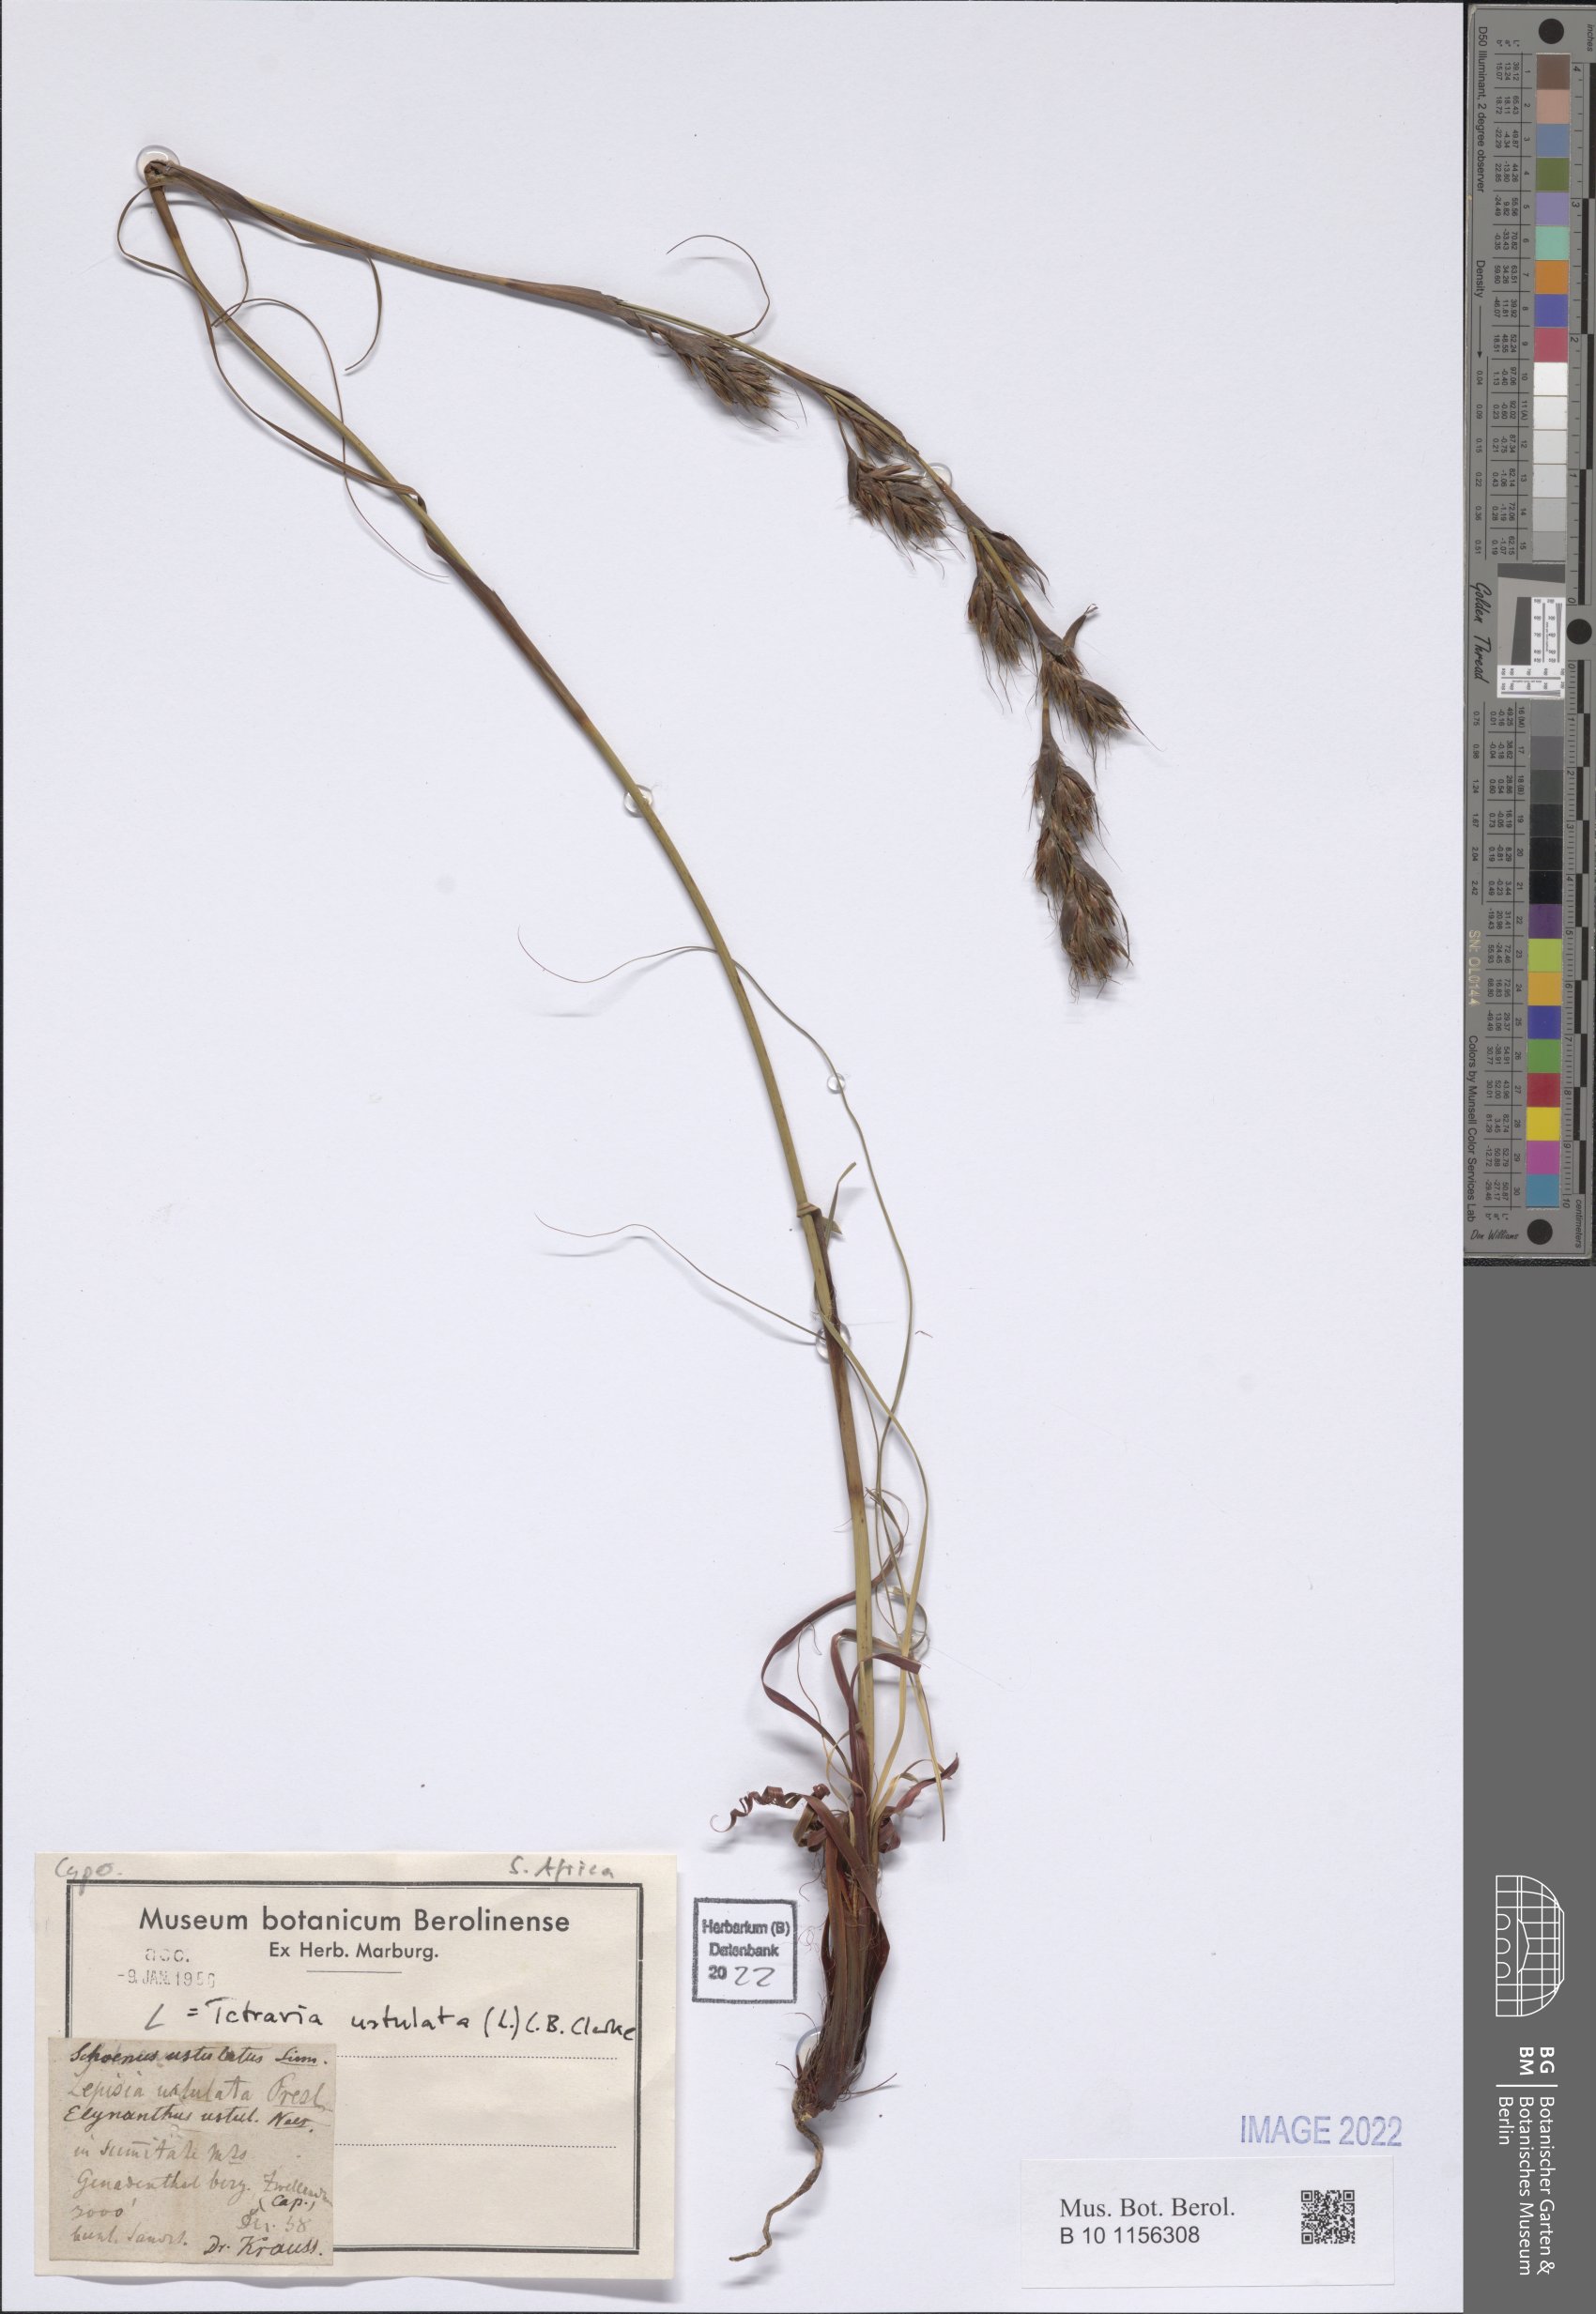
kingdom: Plantae
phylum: Tracheophyta
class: Liliopsida
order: Poales
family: Cyperaceae
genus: Tetraria
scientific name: Tetraria ustulata
